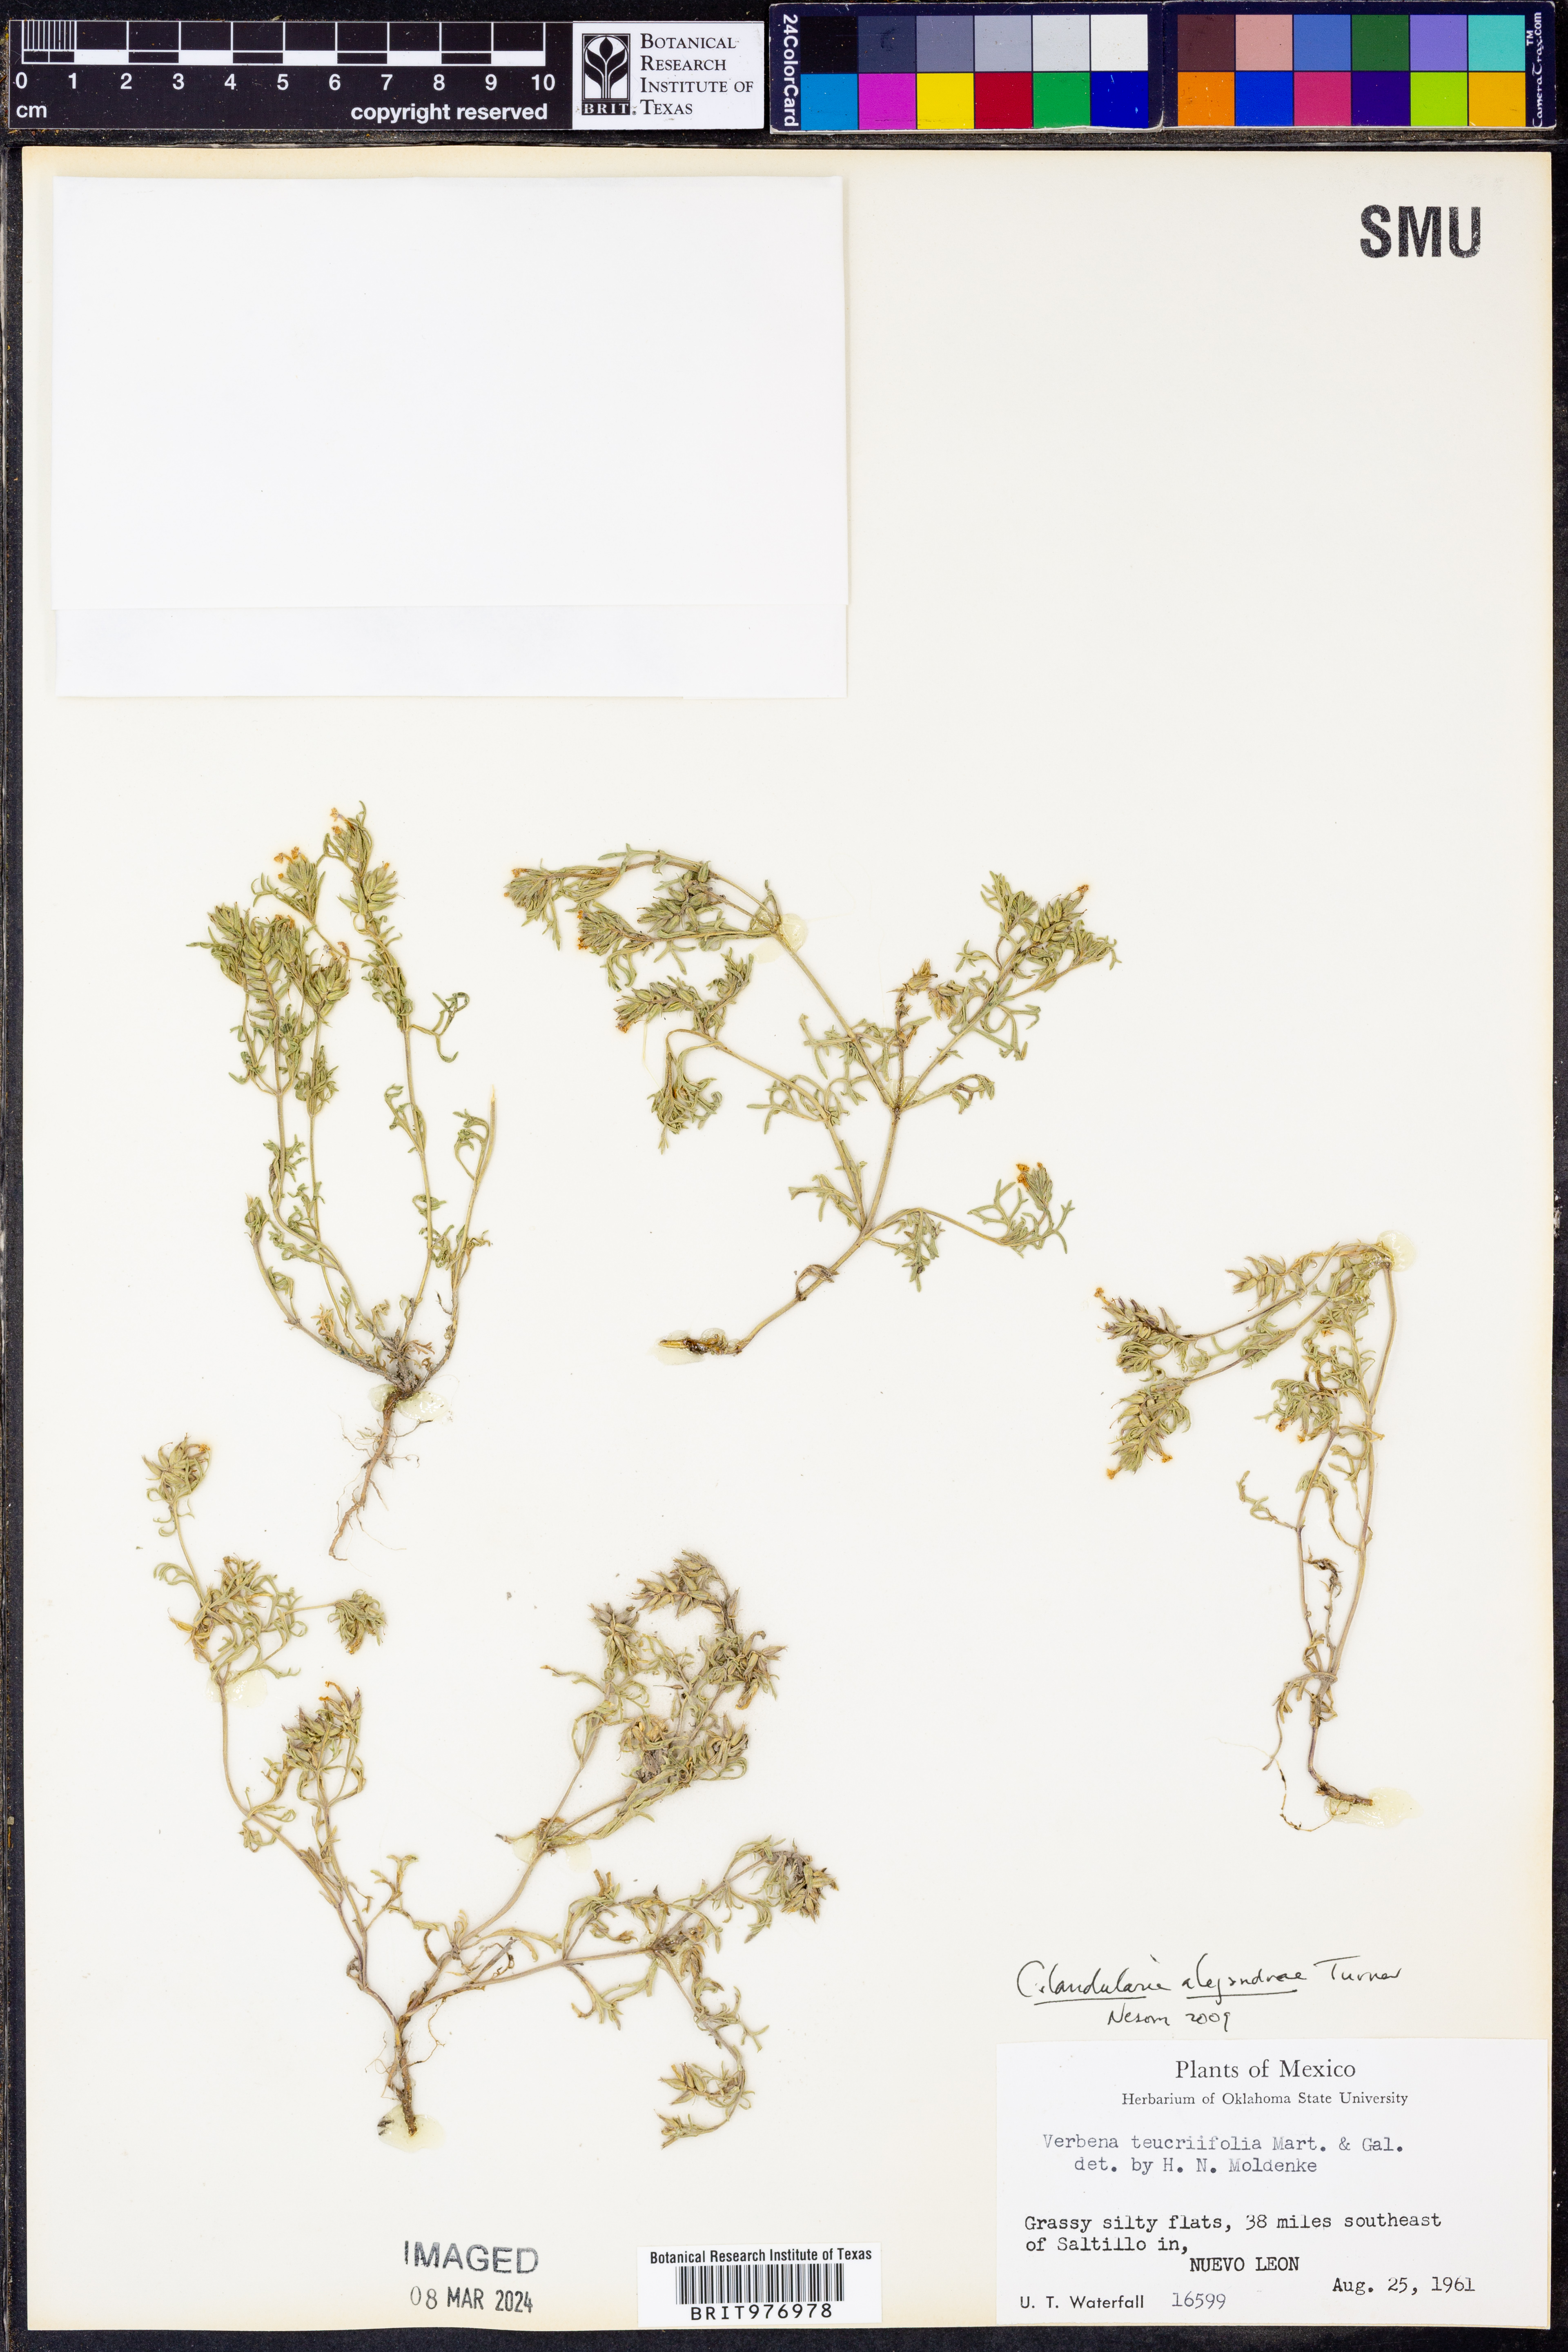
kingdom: Plantae
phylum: Tracheophyta
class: Magnoliopsida
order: Lamiales
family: Verbenaceae
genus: Verbena
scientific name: Verbena alejandrana
